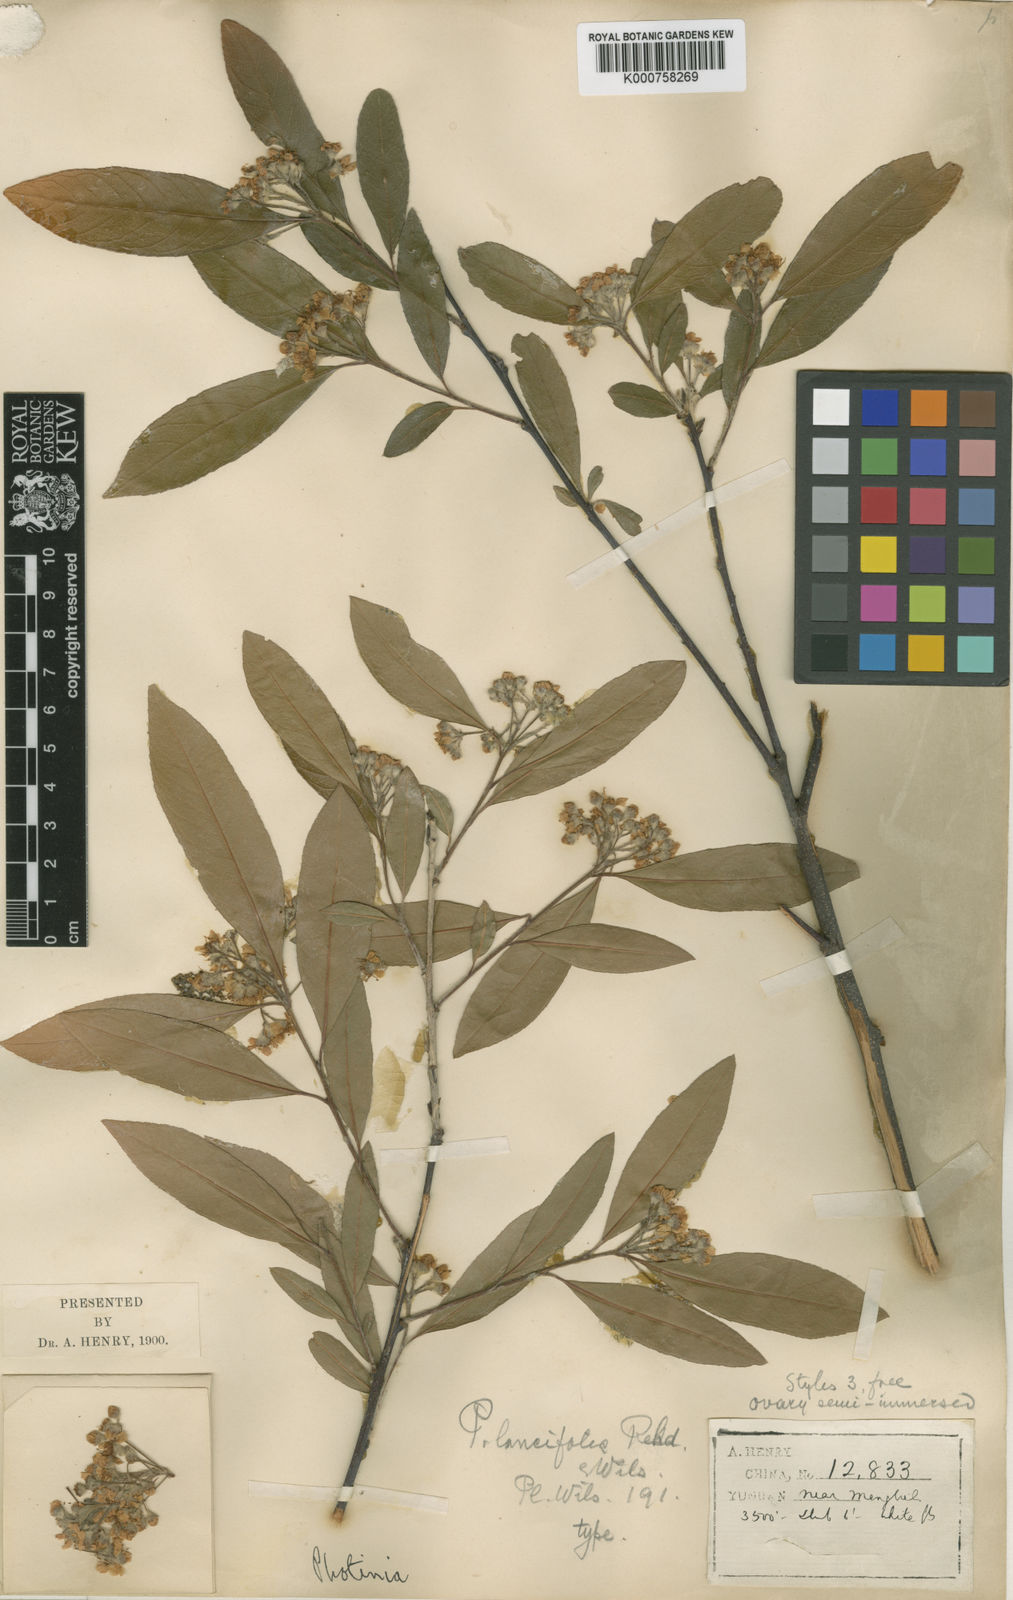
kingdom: Plantae
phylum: Tracheophyta
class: Magnoliopsida
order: Rosales
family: Rosaceae
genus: Pourthiaea
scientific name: Pourthiaea arguta
